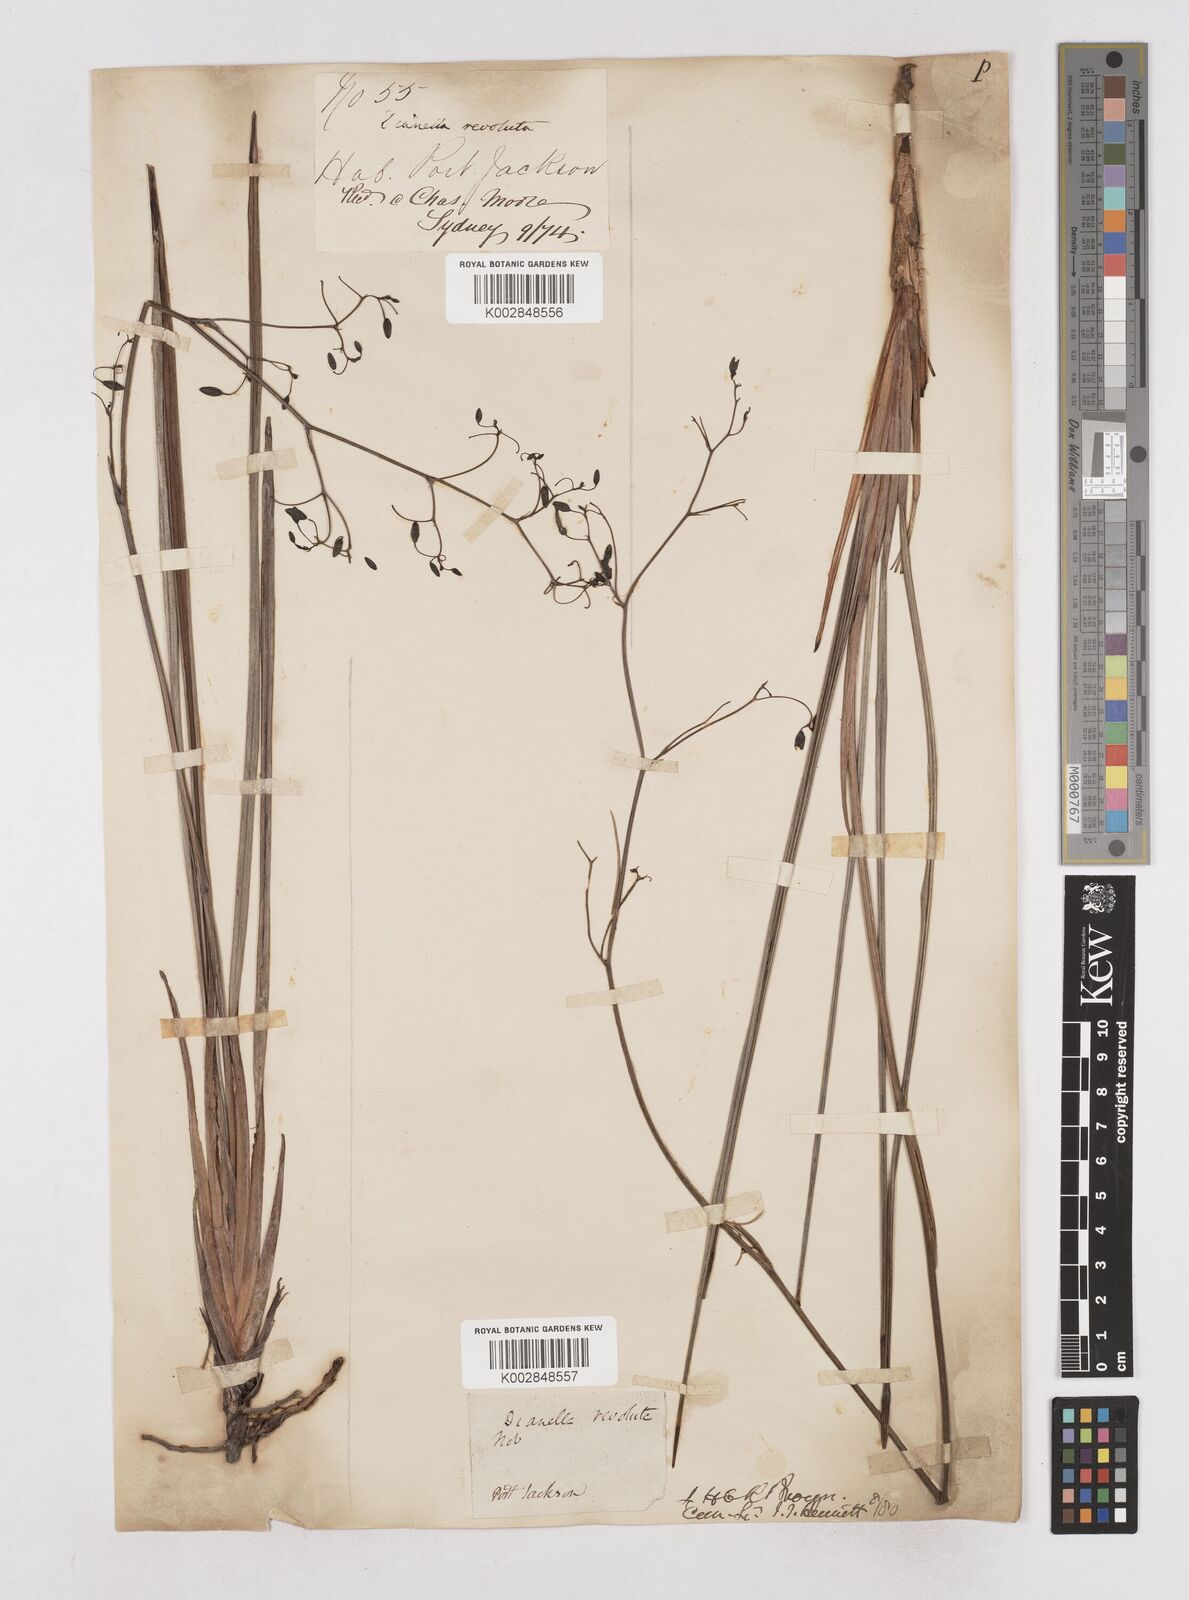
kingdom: Plantae
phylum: Tracheophyta
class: Liliopsida
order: Asparagales
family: Asphodelaceae
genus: Dianella
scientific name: Dianella revoluta
